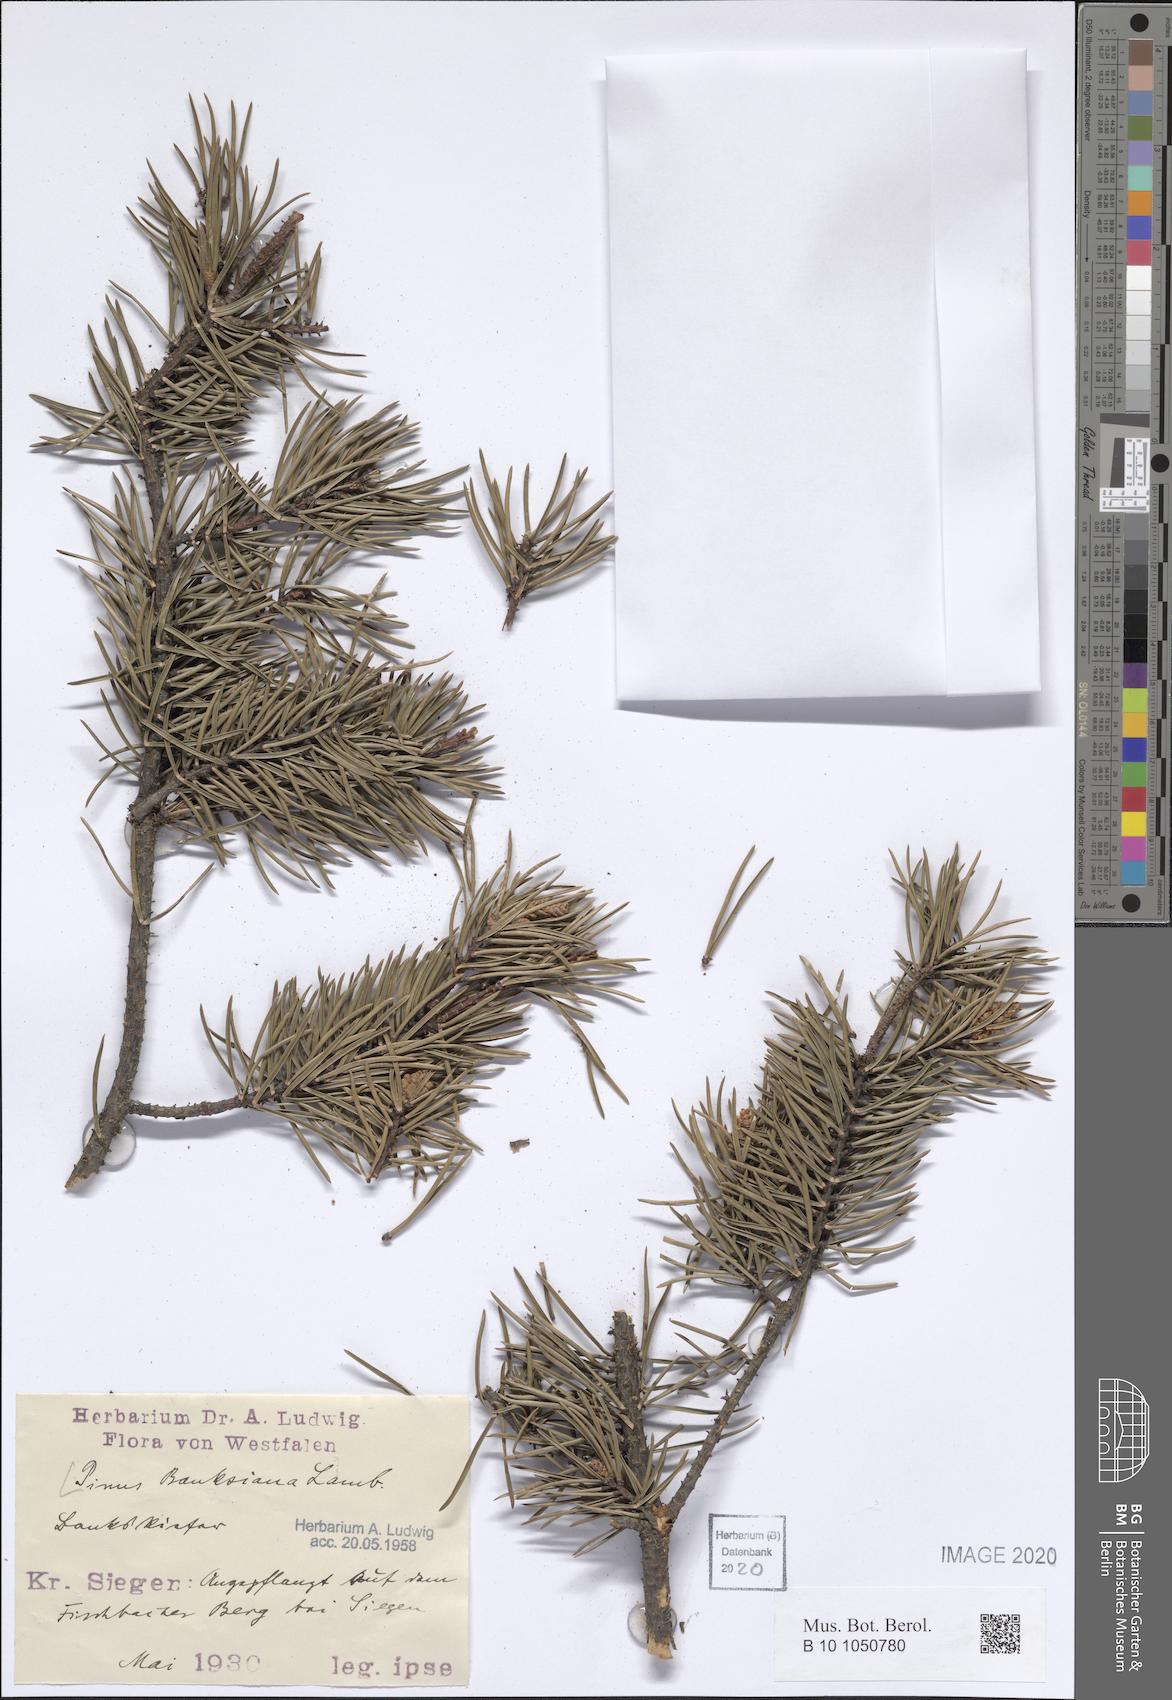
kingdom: Plantae
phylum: Tracheophyta
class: Pinopsida
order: Pinales
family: Pinaceae
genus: Pinus
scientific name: Pinus banksiana
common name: Jack pine
